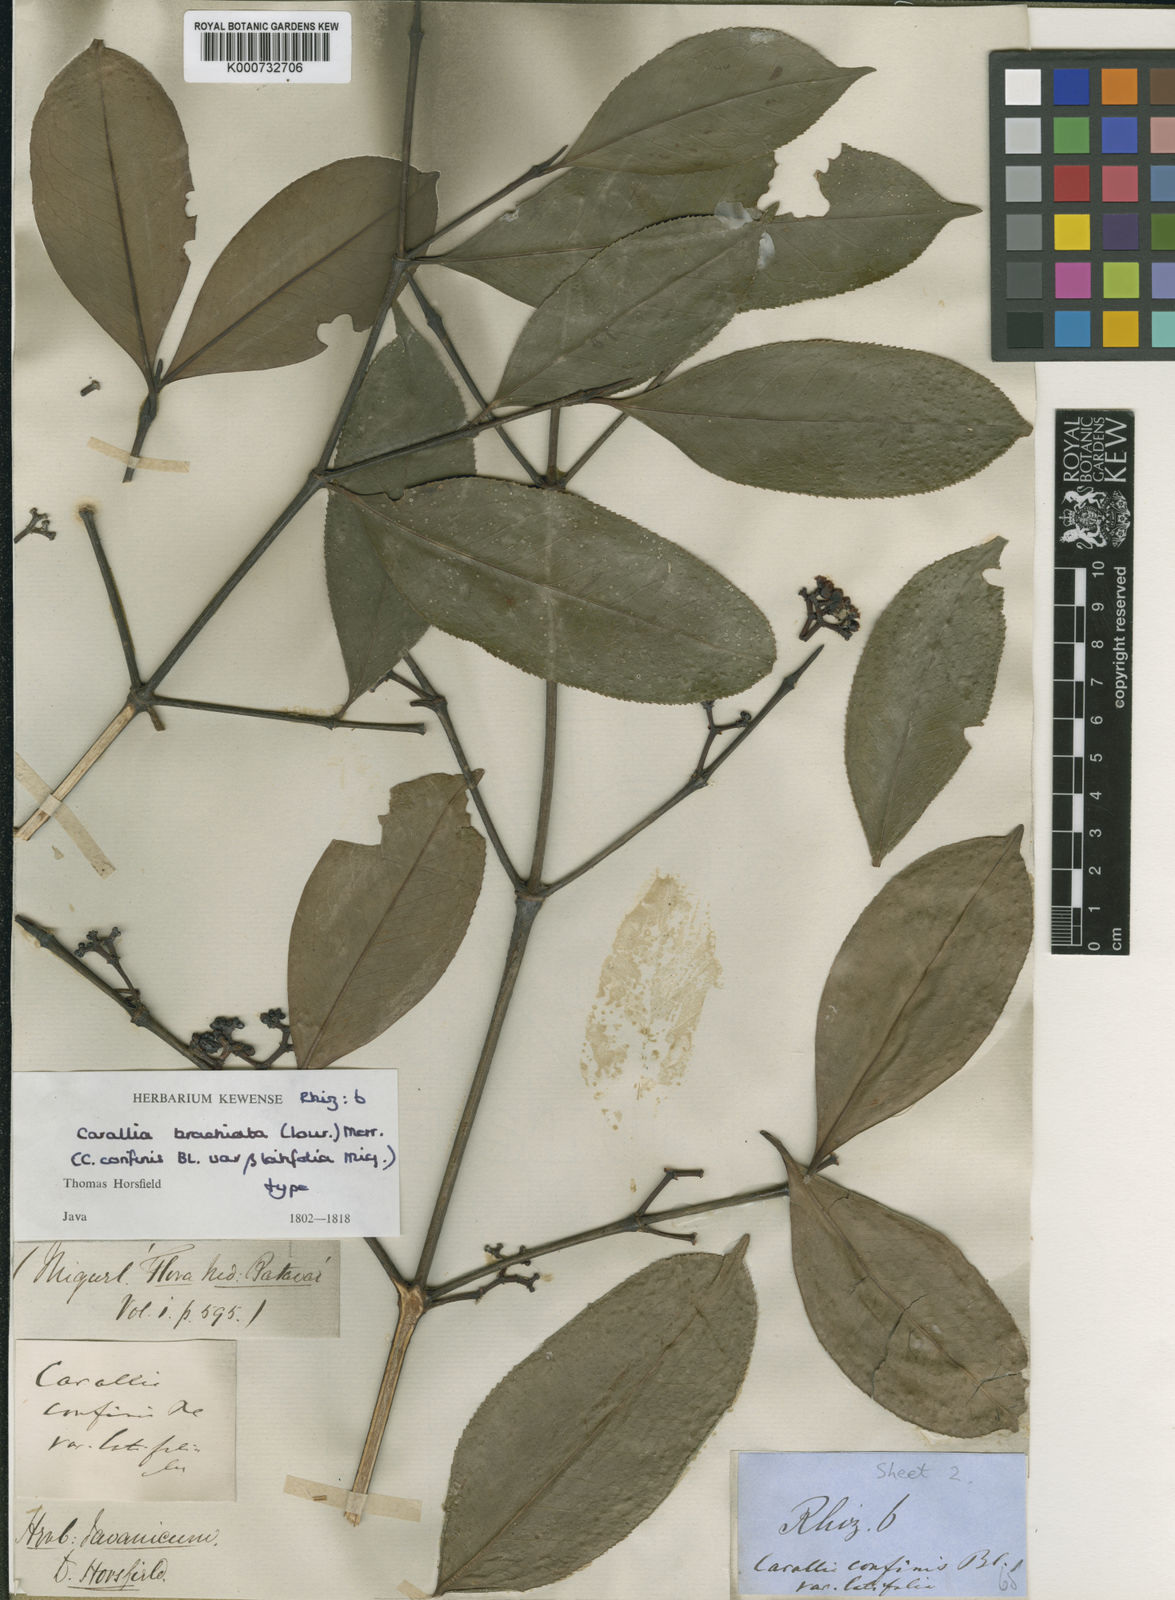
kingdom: Plantae
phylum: Tracheophyta
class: Magnoliopsida
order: Malpighiales
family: Rhizophoraceae
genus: Carallia
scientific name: Carallia brachiata
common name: Carallawood
